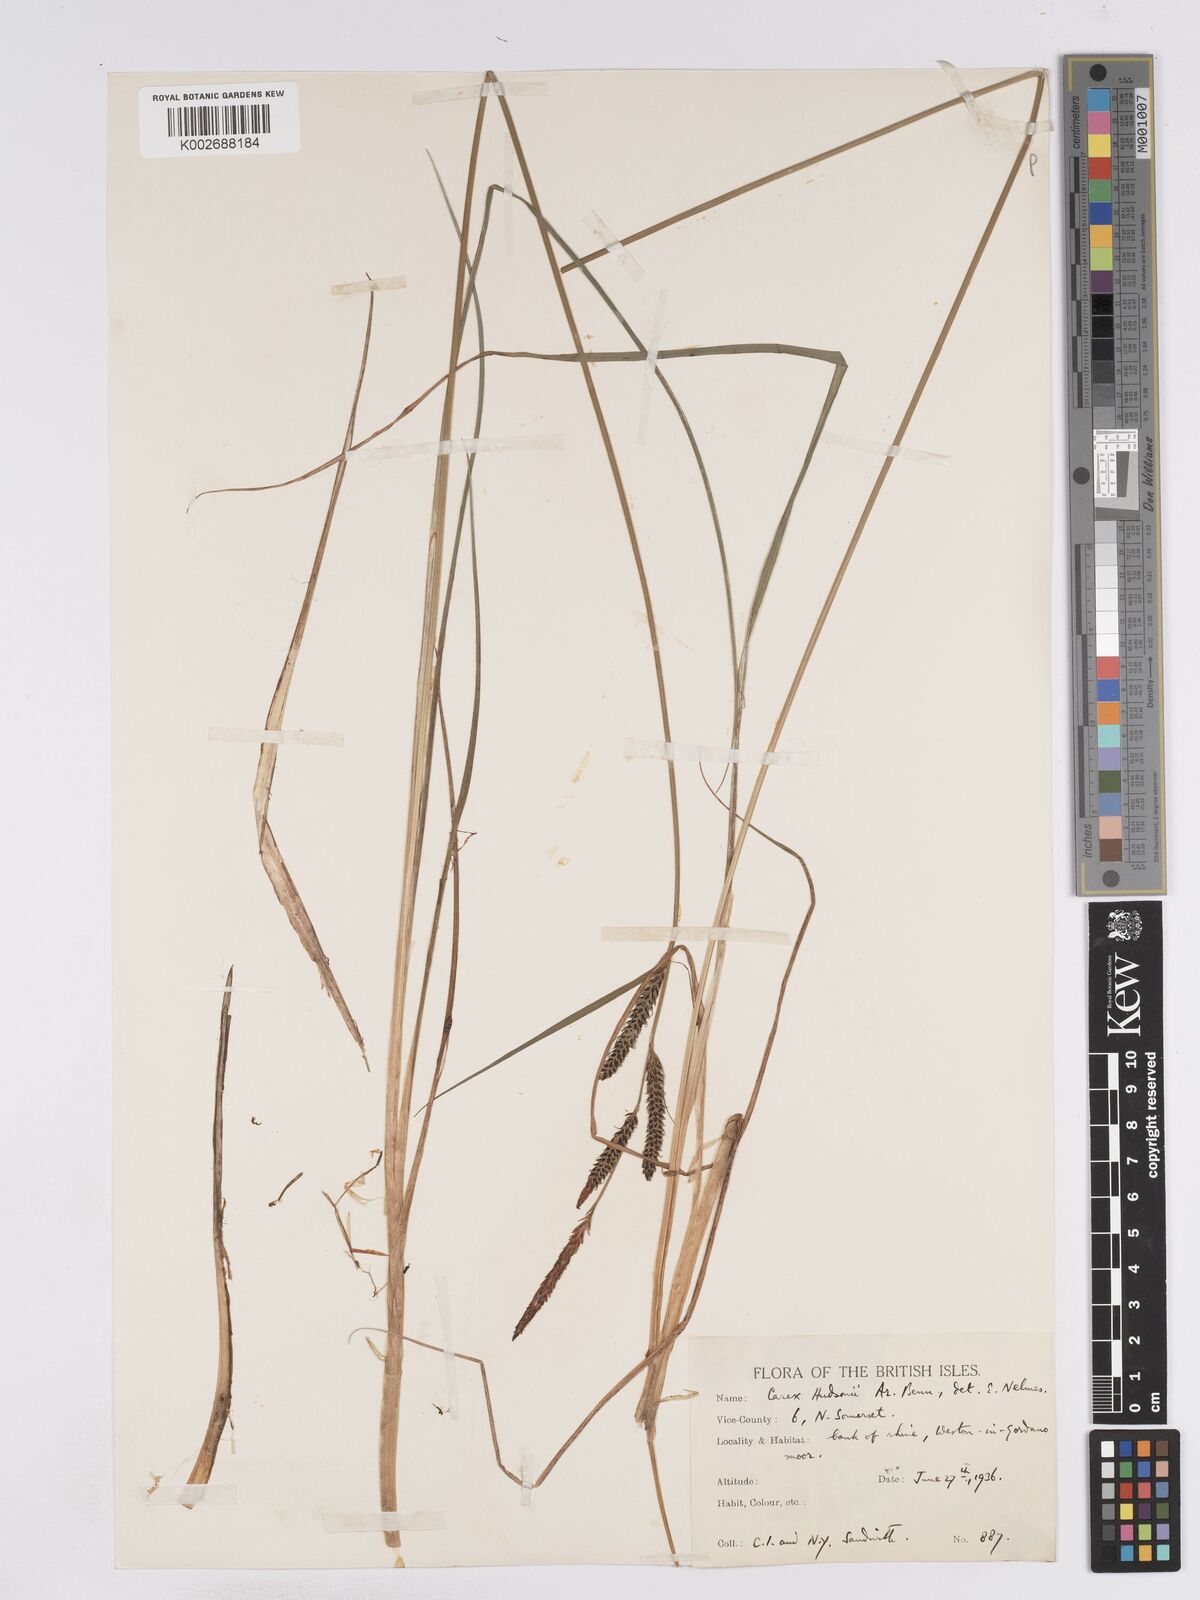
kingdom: Plantae
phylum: Tracheophyta
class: Liliopsida
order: Poales
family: Cyperaceae
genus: Carex
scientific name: Carex elata
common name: Tufted sedge
